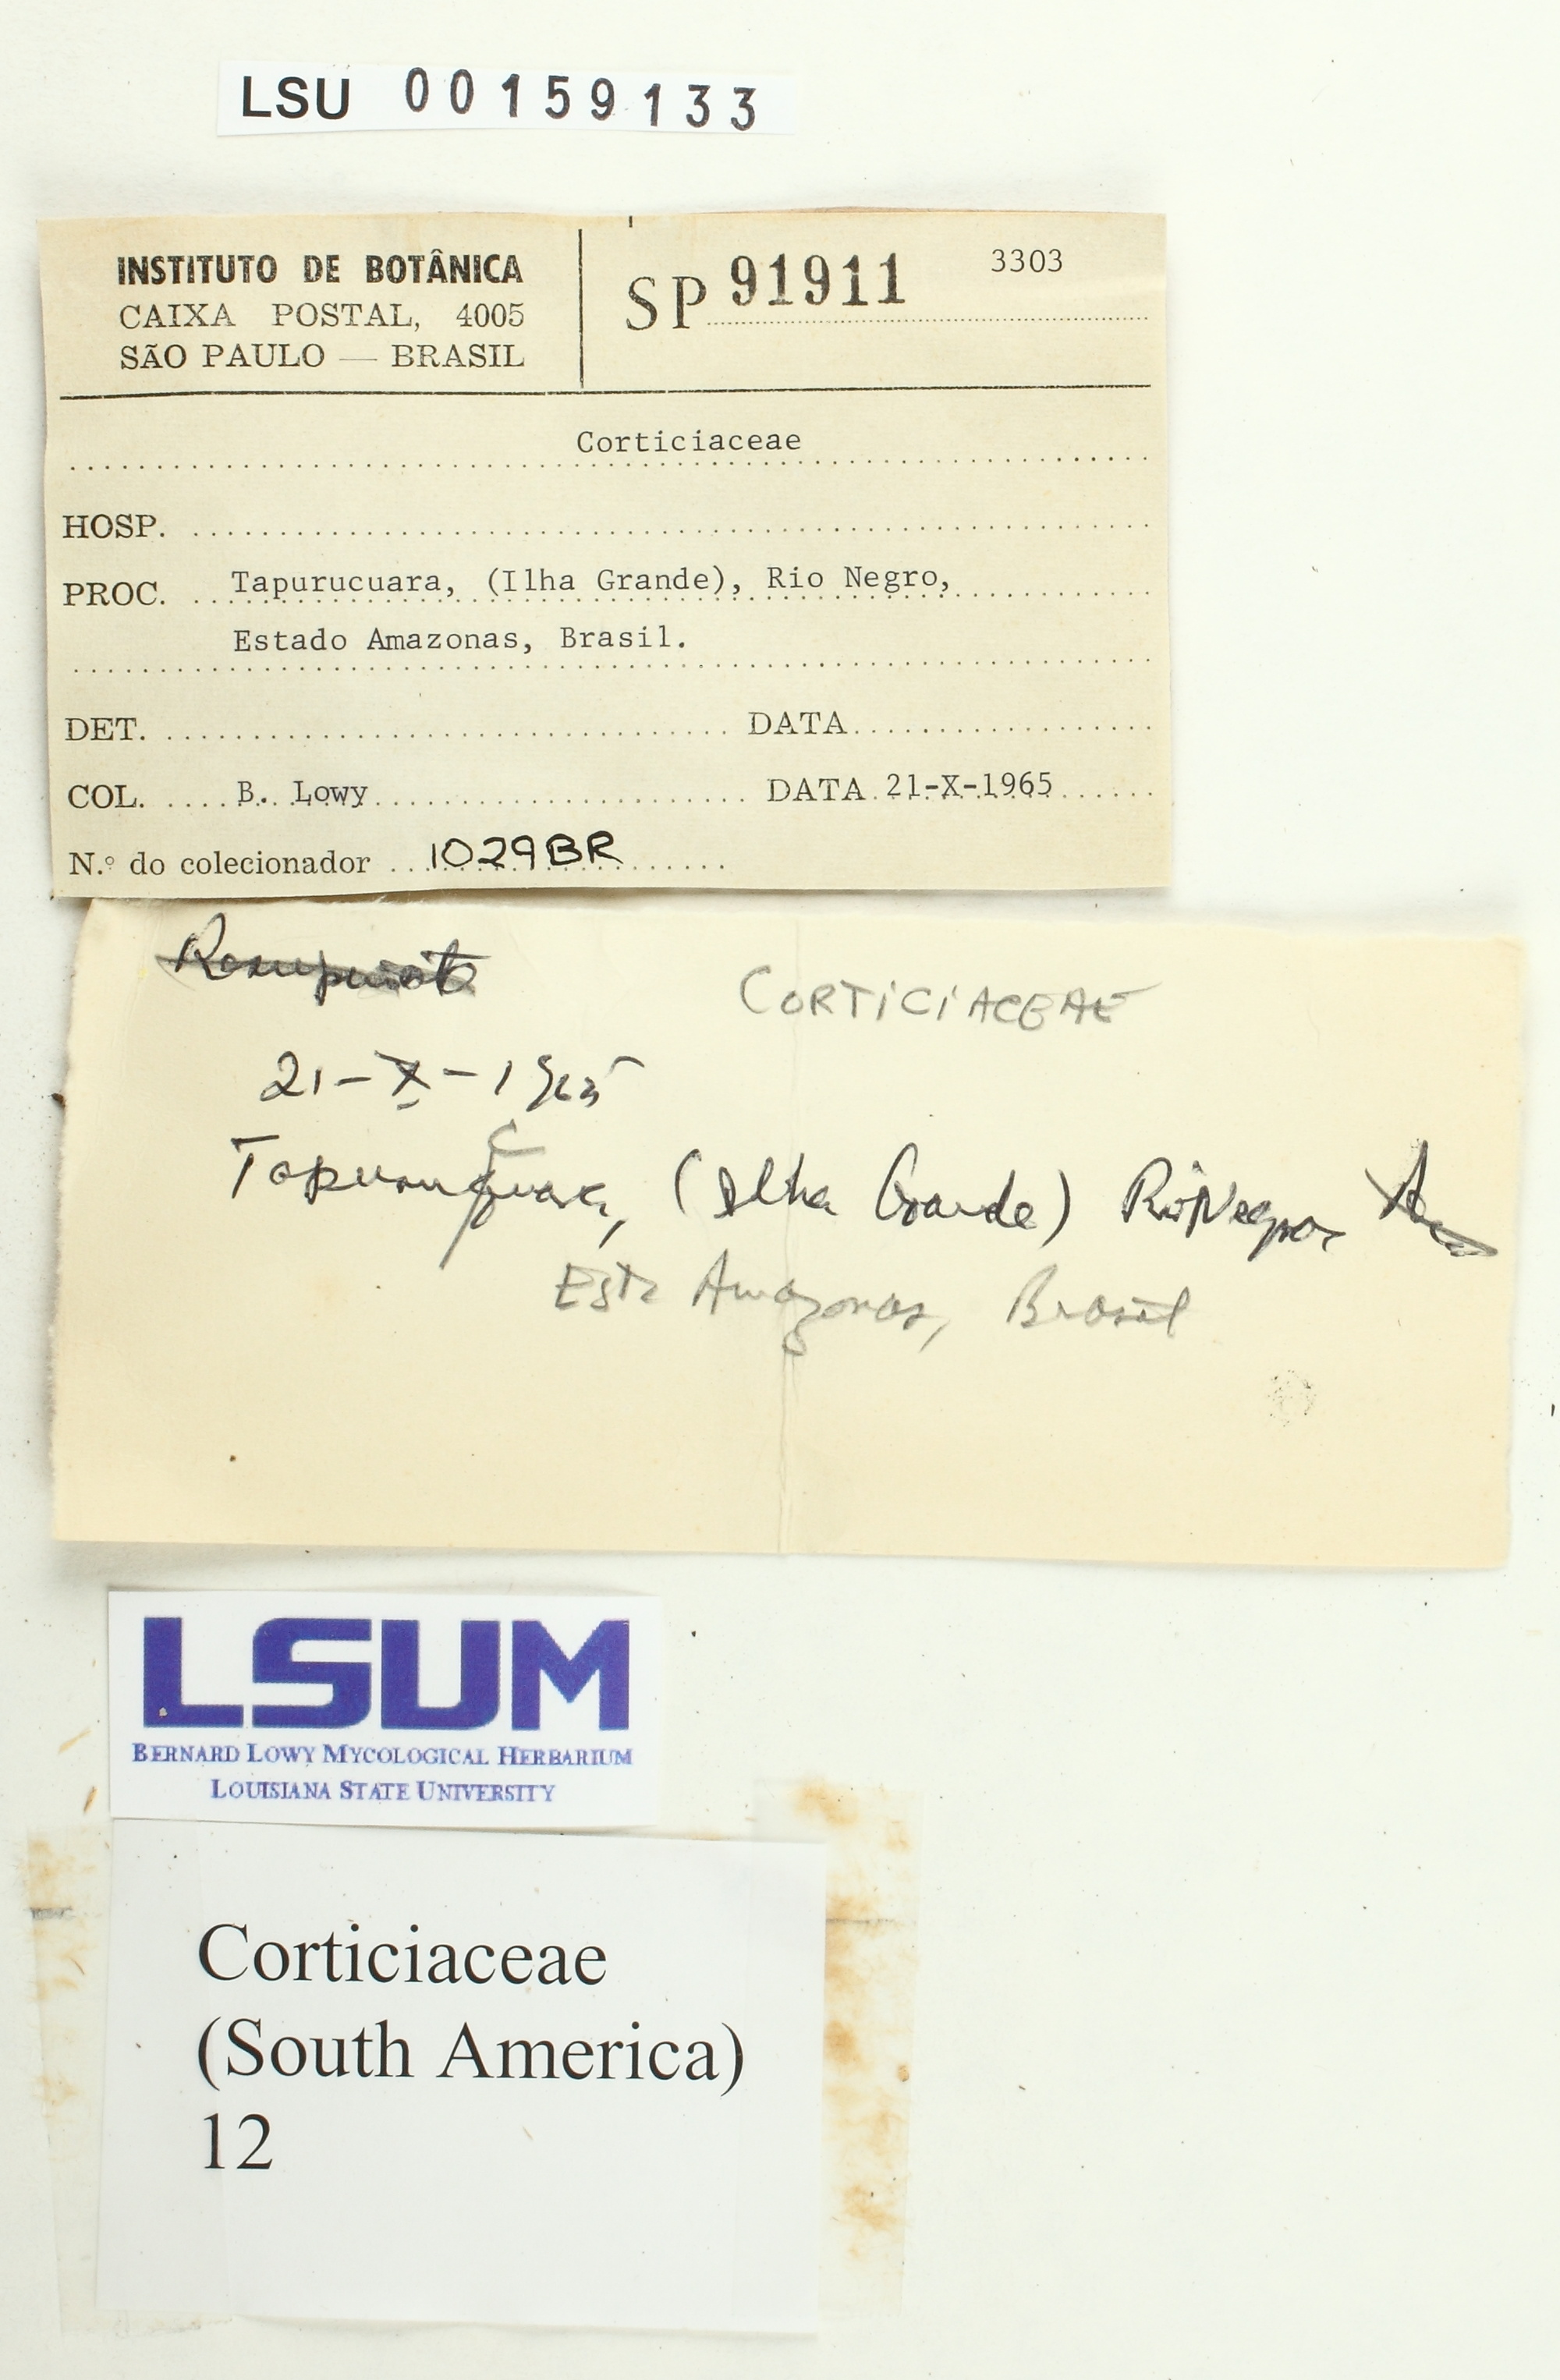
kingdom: Fungi
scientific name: Fungi
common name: Fungi
